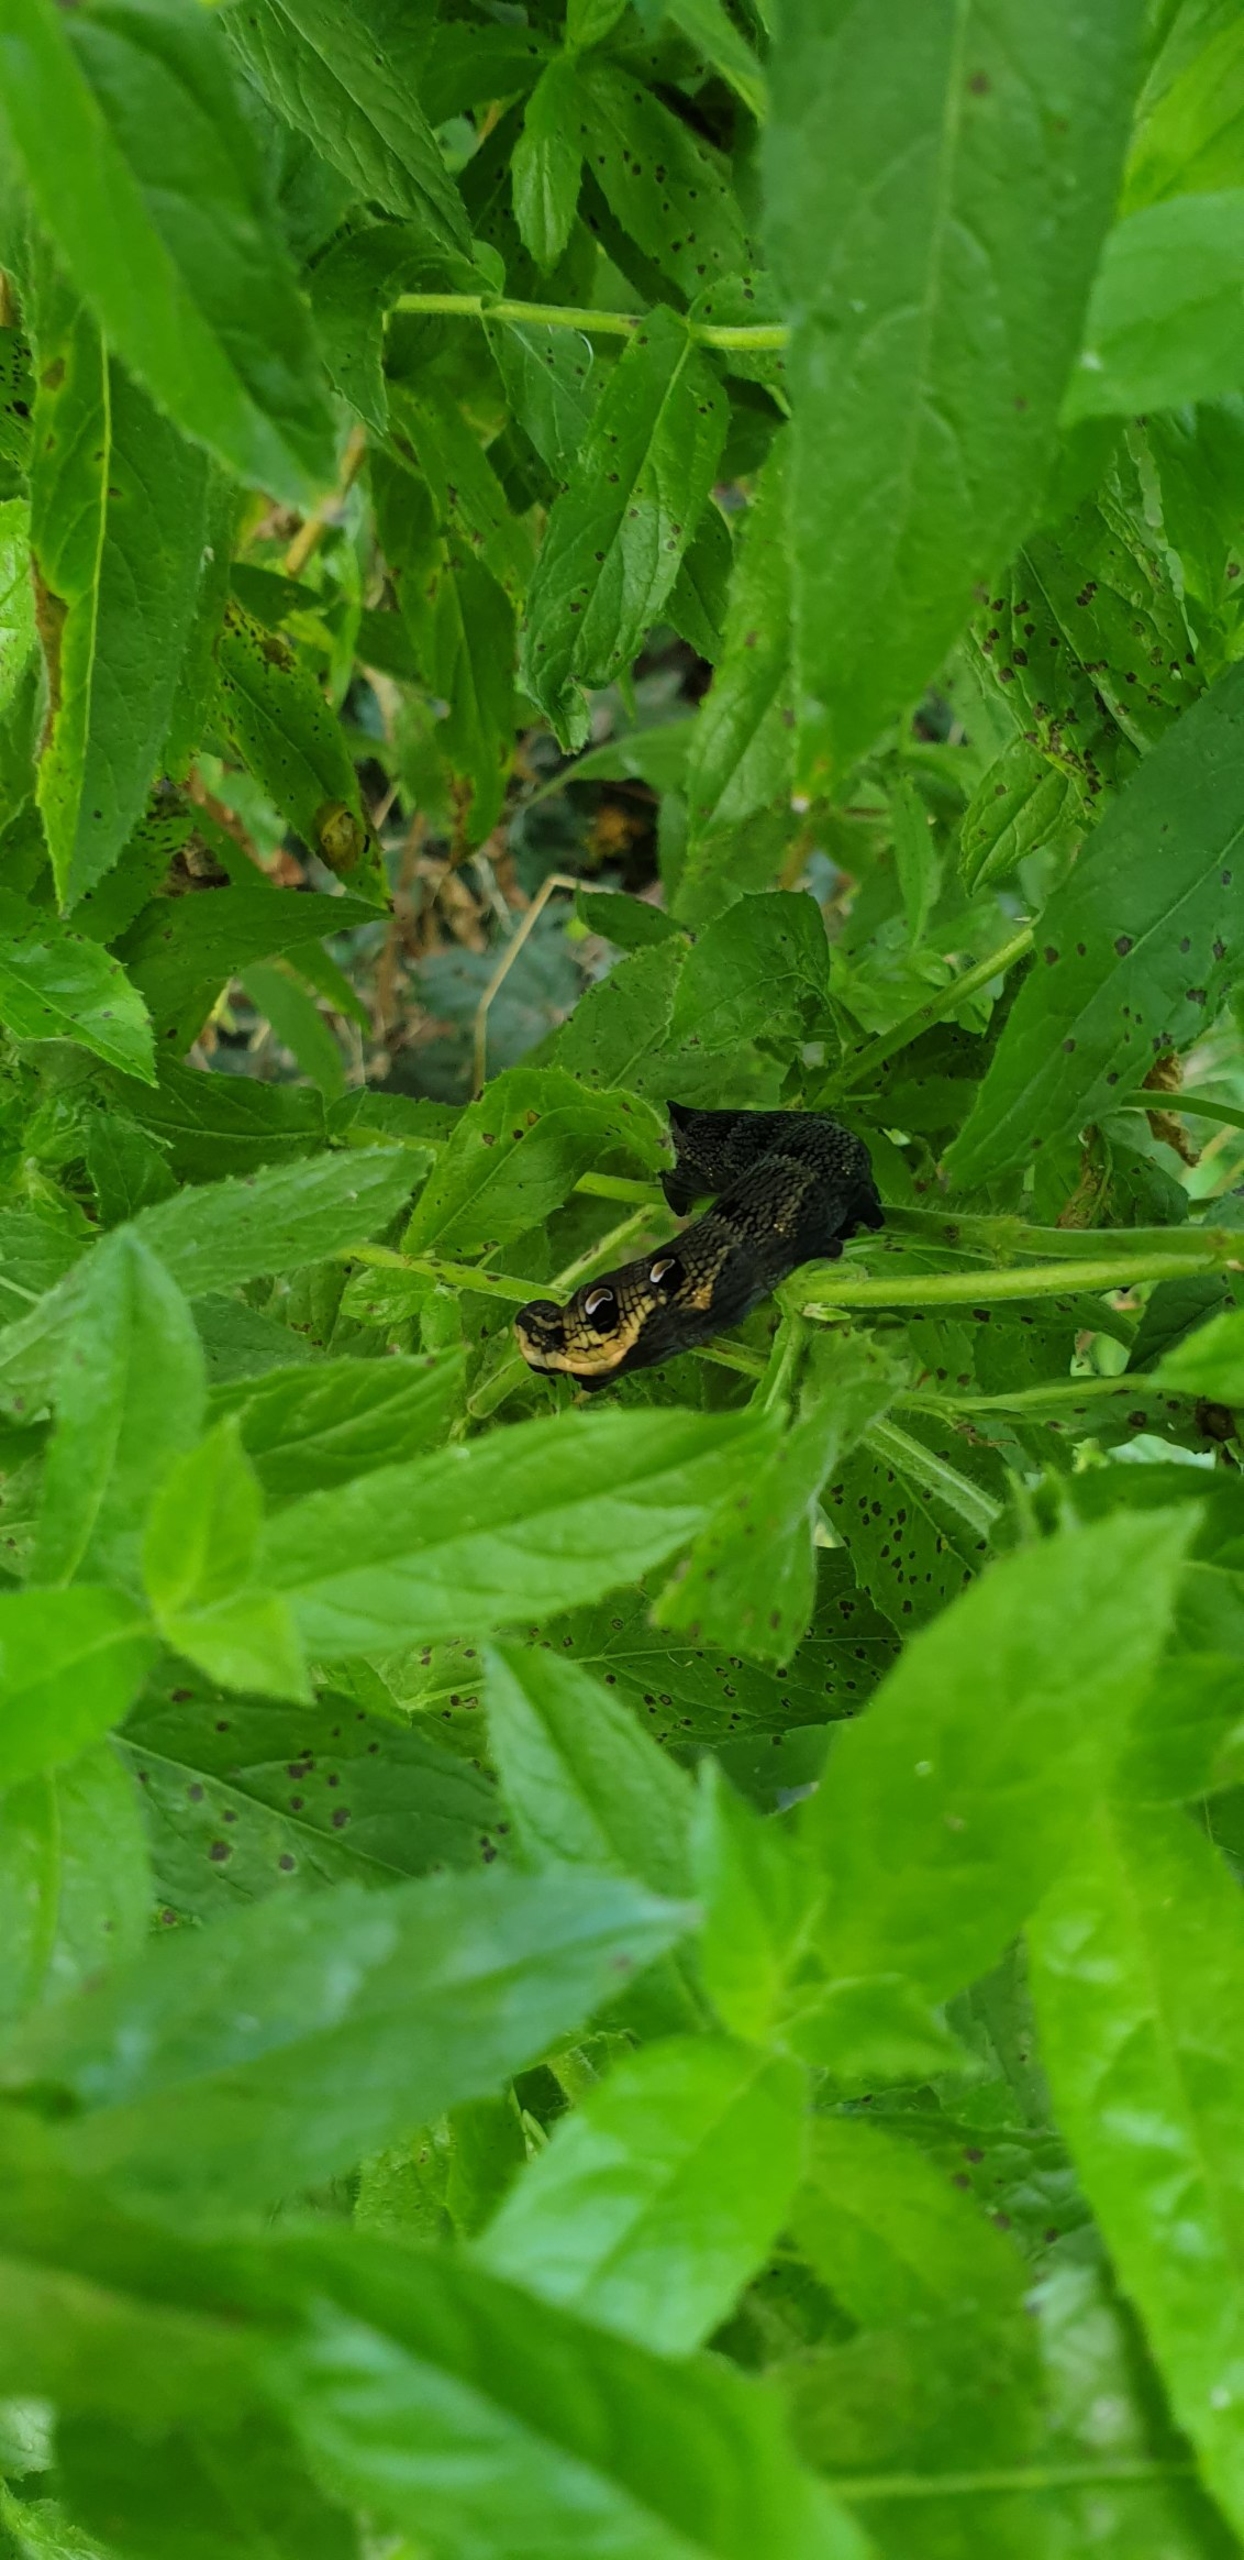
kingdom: Animalia
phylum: Arthropoda
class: Insecta
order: Lepidoptera
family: Sphingidae
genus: Deilephila
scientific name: Deilephila elpenor
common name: Dueurtsværmer
